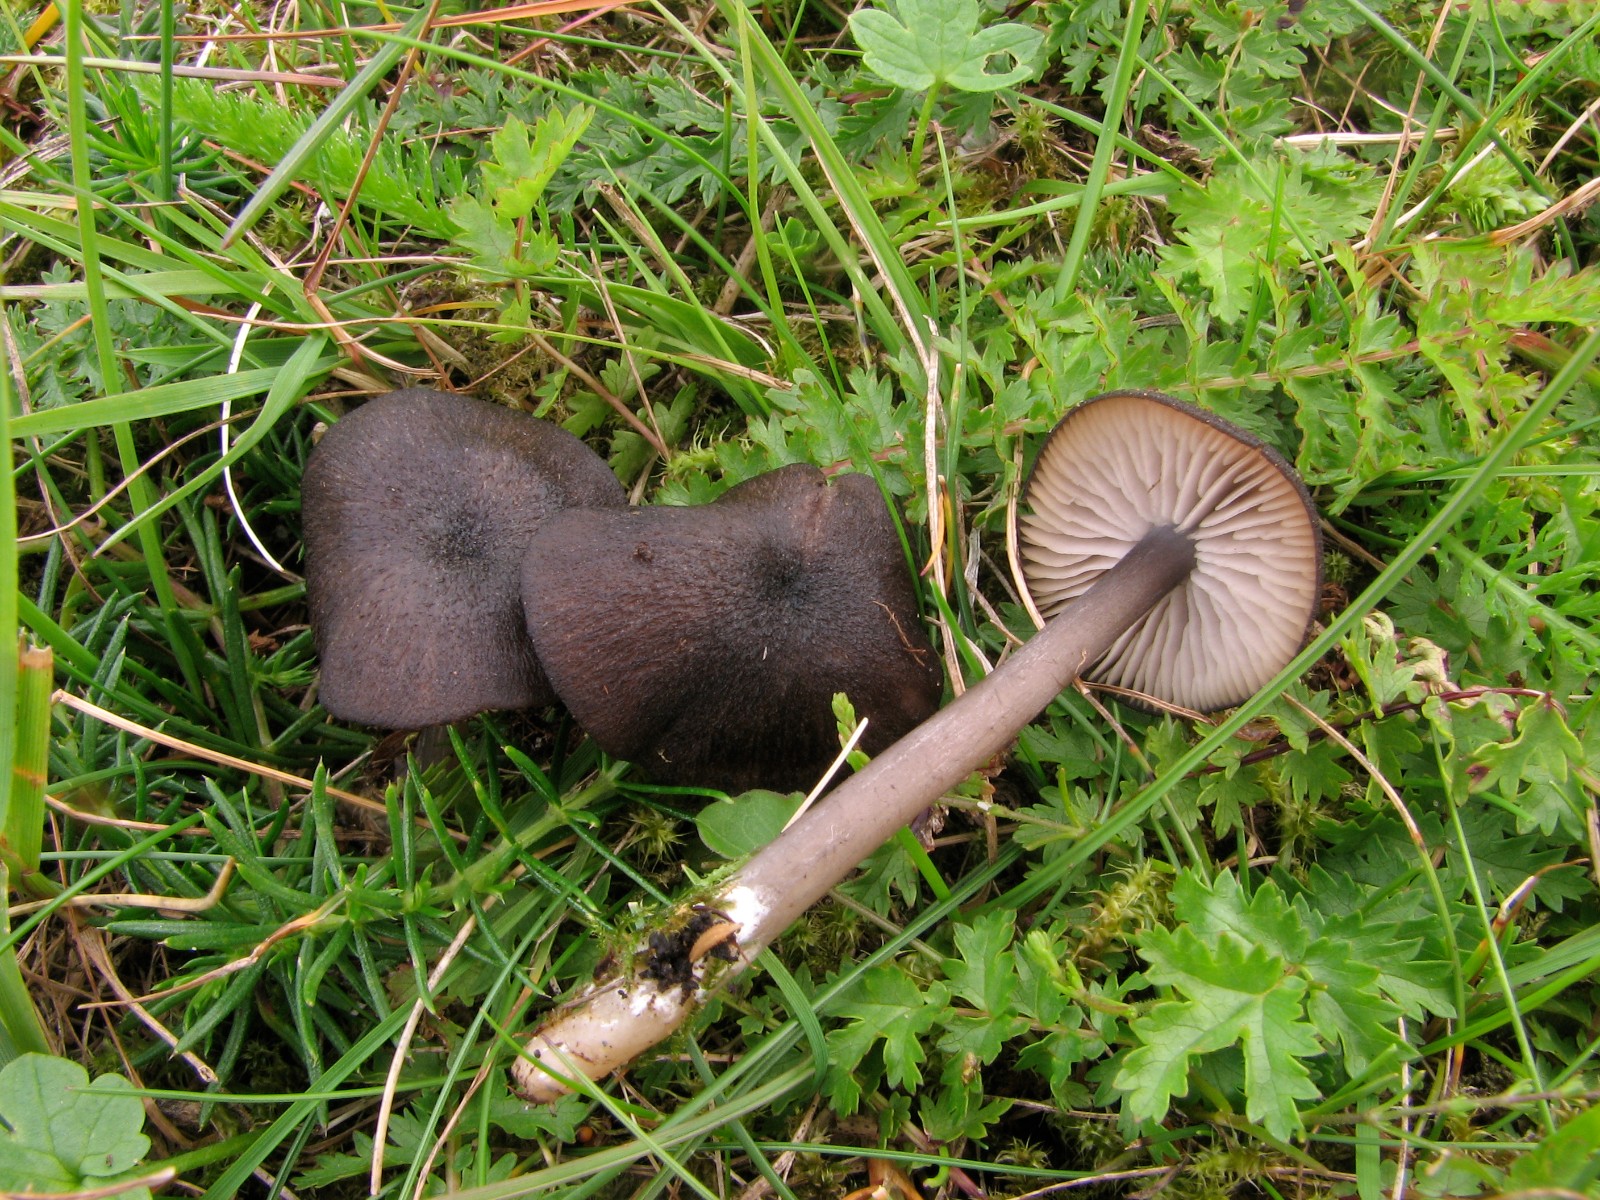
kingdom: Fungi
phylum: Basidiomycota
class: Agaricomycetes
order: Agaricales
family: Entolomataceae
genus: Entoloma
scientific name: Entoloma porphyrogriseum
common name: porfyrgrå rødblad
